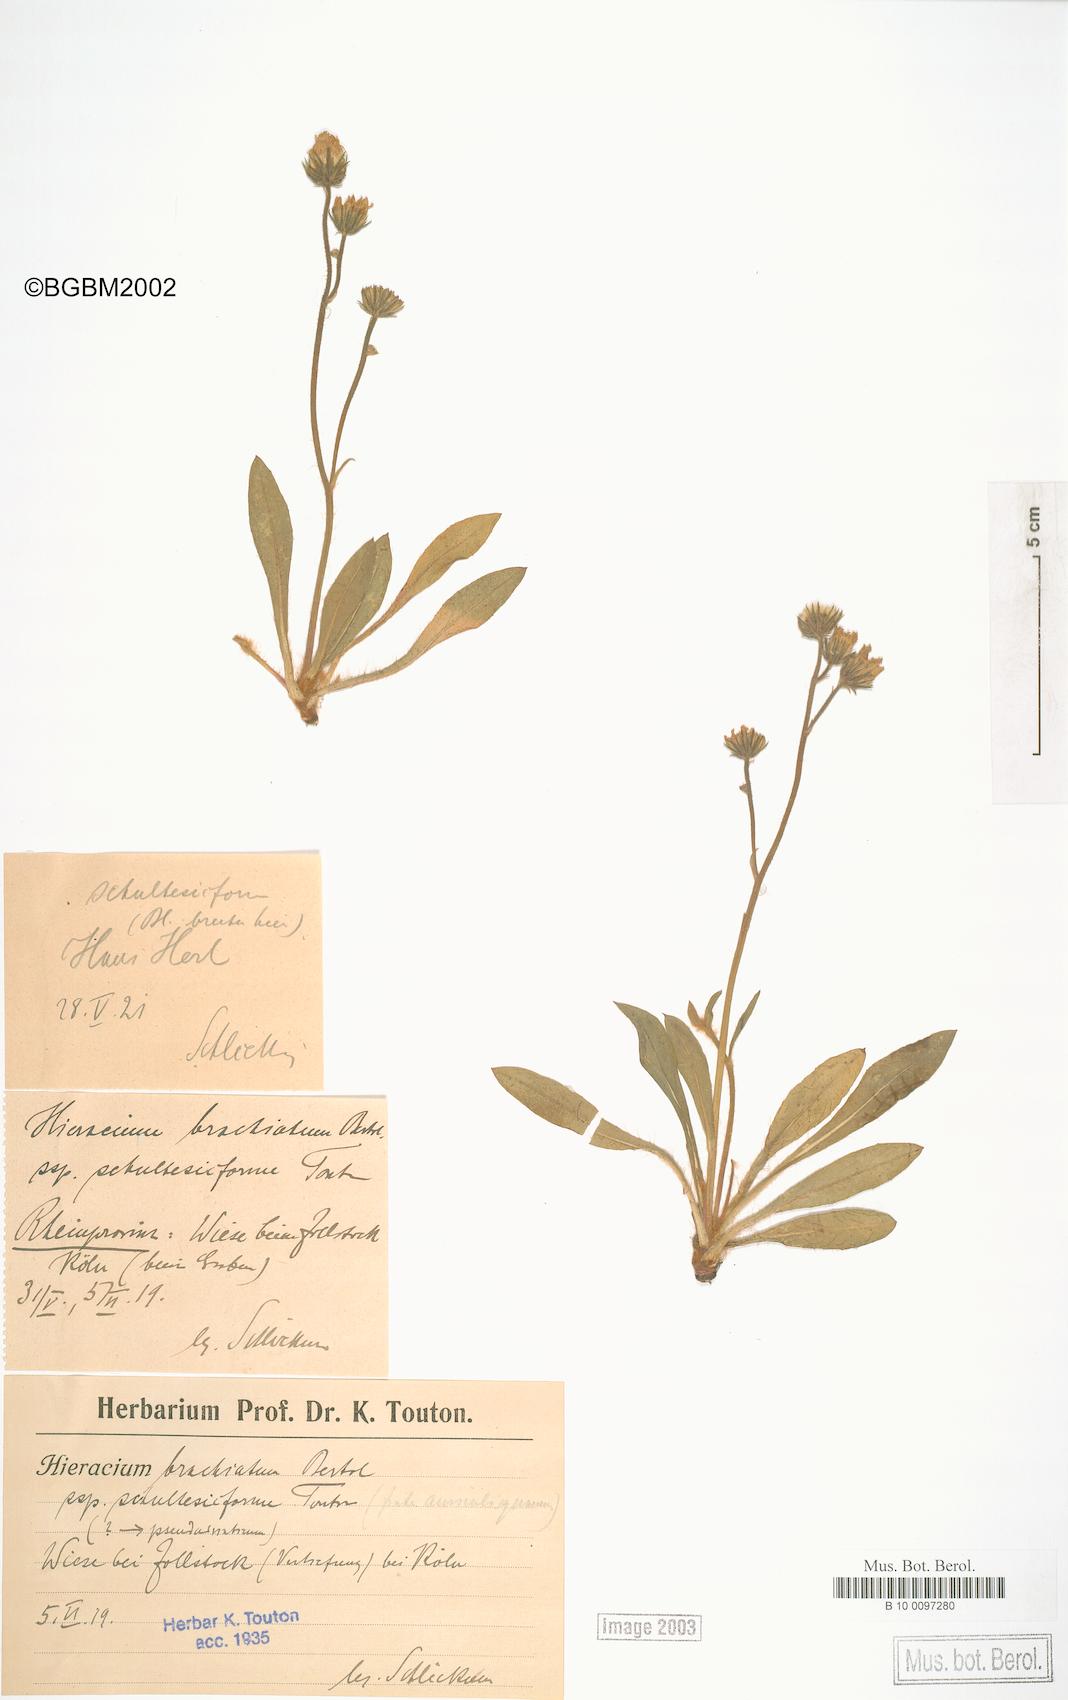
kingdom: Plantae
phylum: Tracheophyta
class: Magnoliopsida
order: Asterales
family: Asteraceae
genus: Pilosella
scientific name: Pilosella acutifolia
